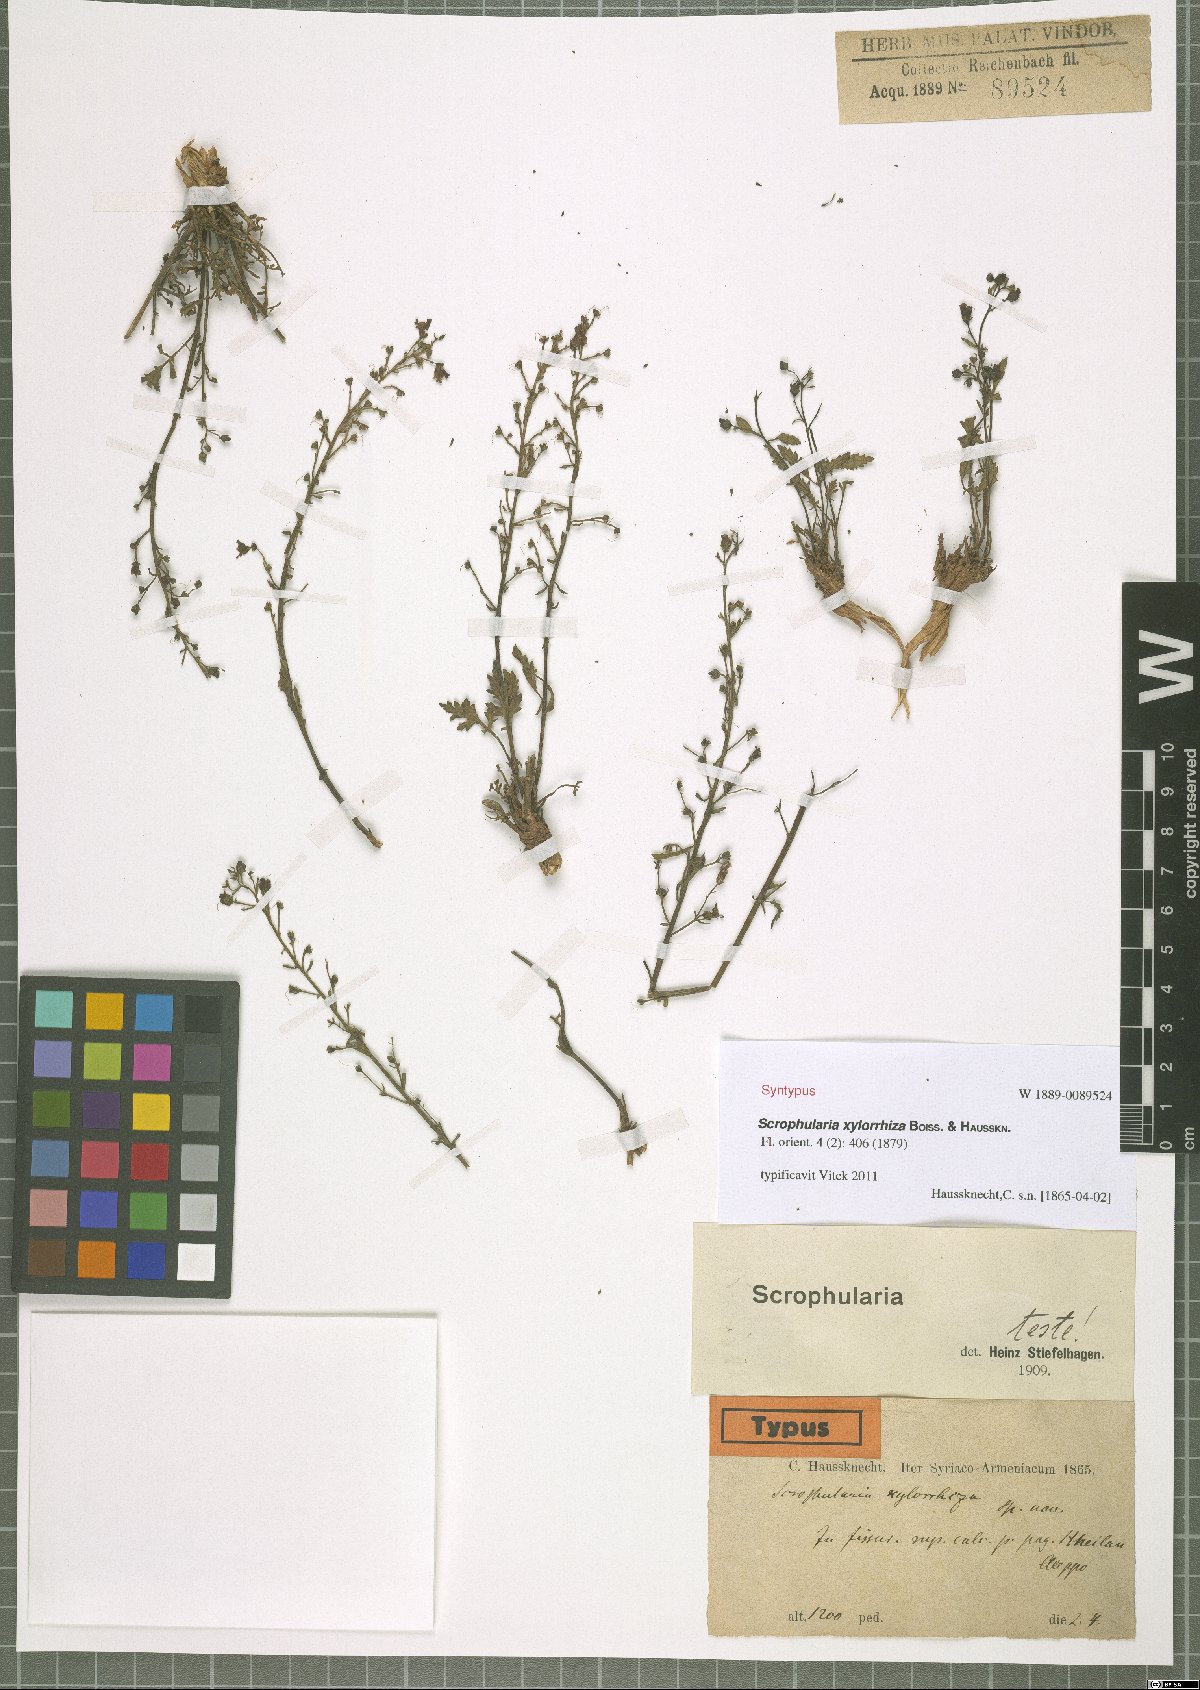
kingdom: Plantae
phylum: Tracheophyta
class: Magnoliopsida
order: Lamiales
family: Scrophulariaceae
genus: Scrophularia
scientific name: Scrophularia xylorrhiza
